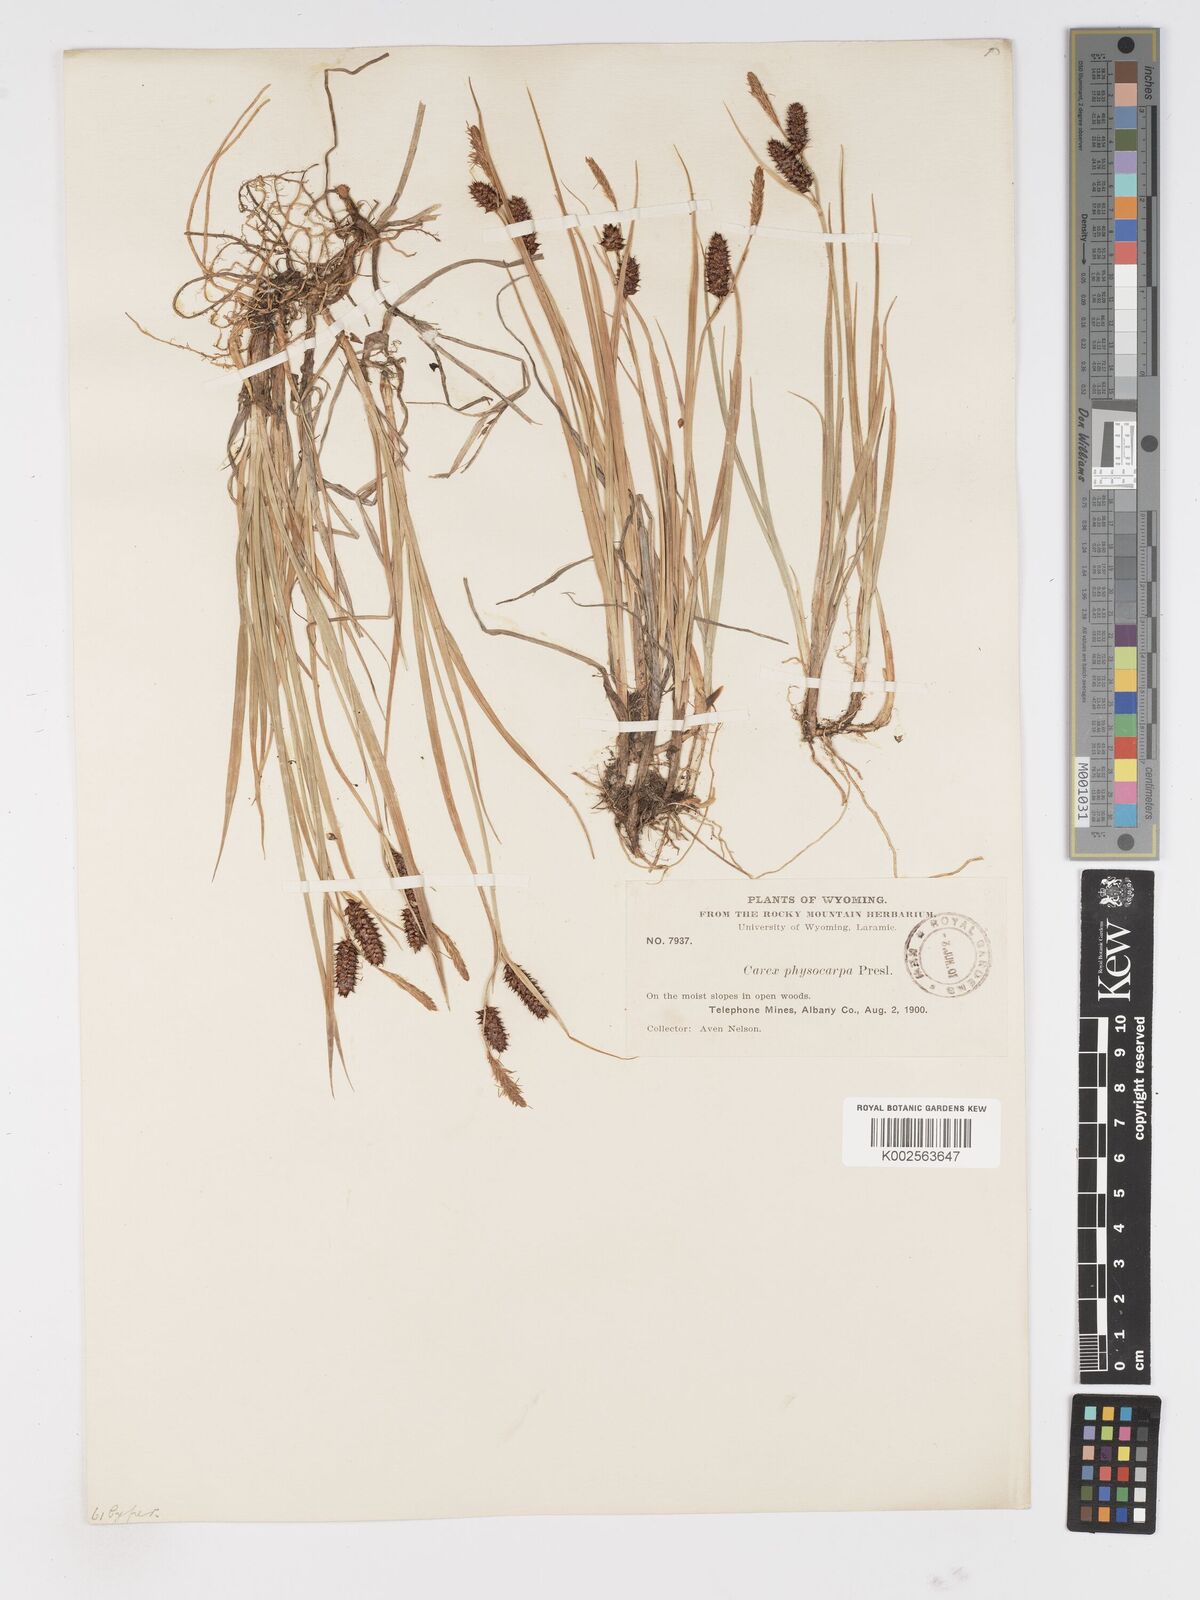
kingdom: Plantae
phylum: Tracheophyta
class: Liliopsida
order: Poales
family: Cyperaceae
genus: Carex
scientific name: Carex saxatilis
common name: Russet sedge
